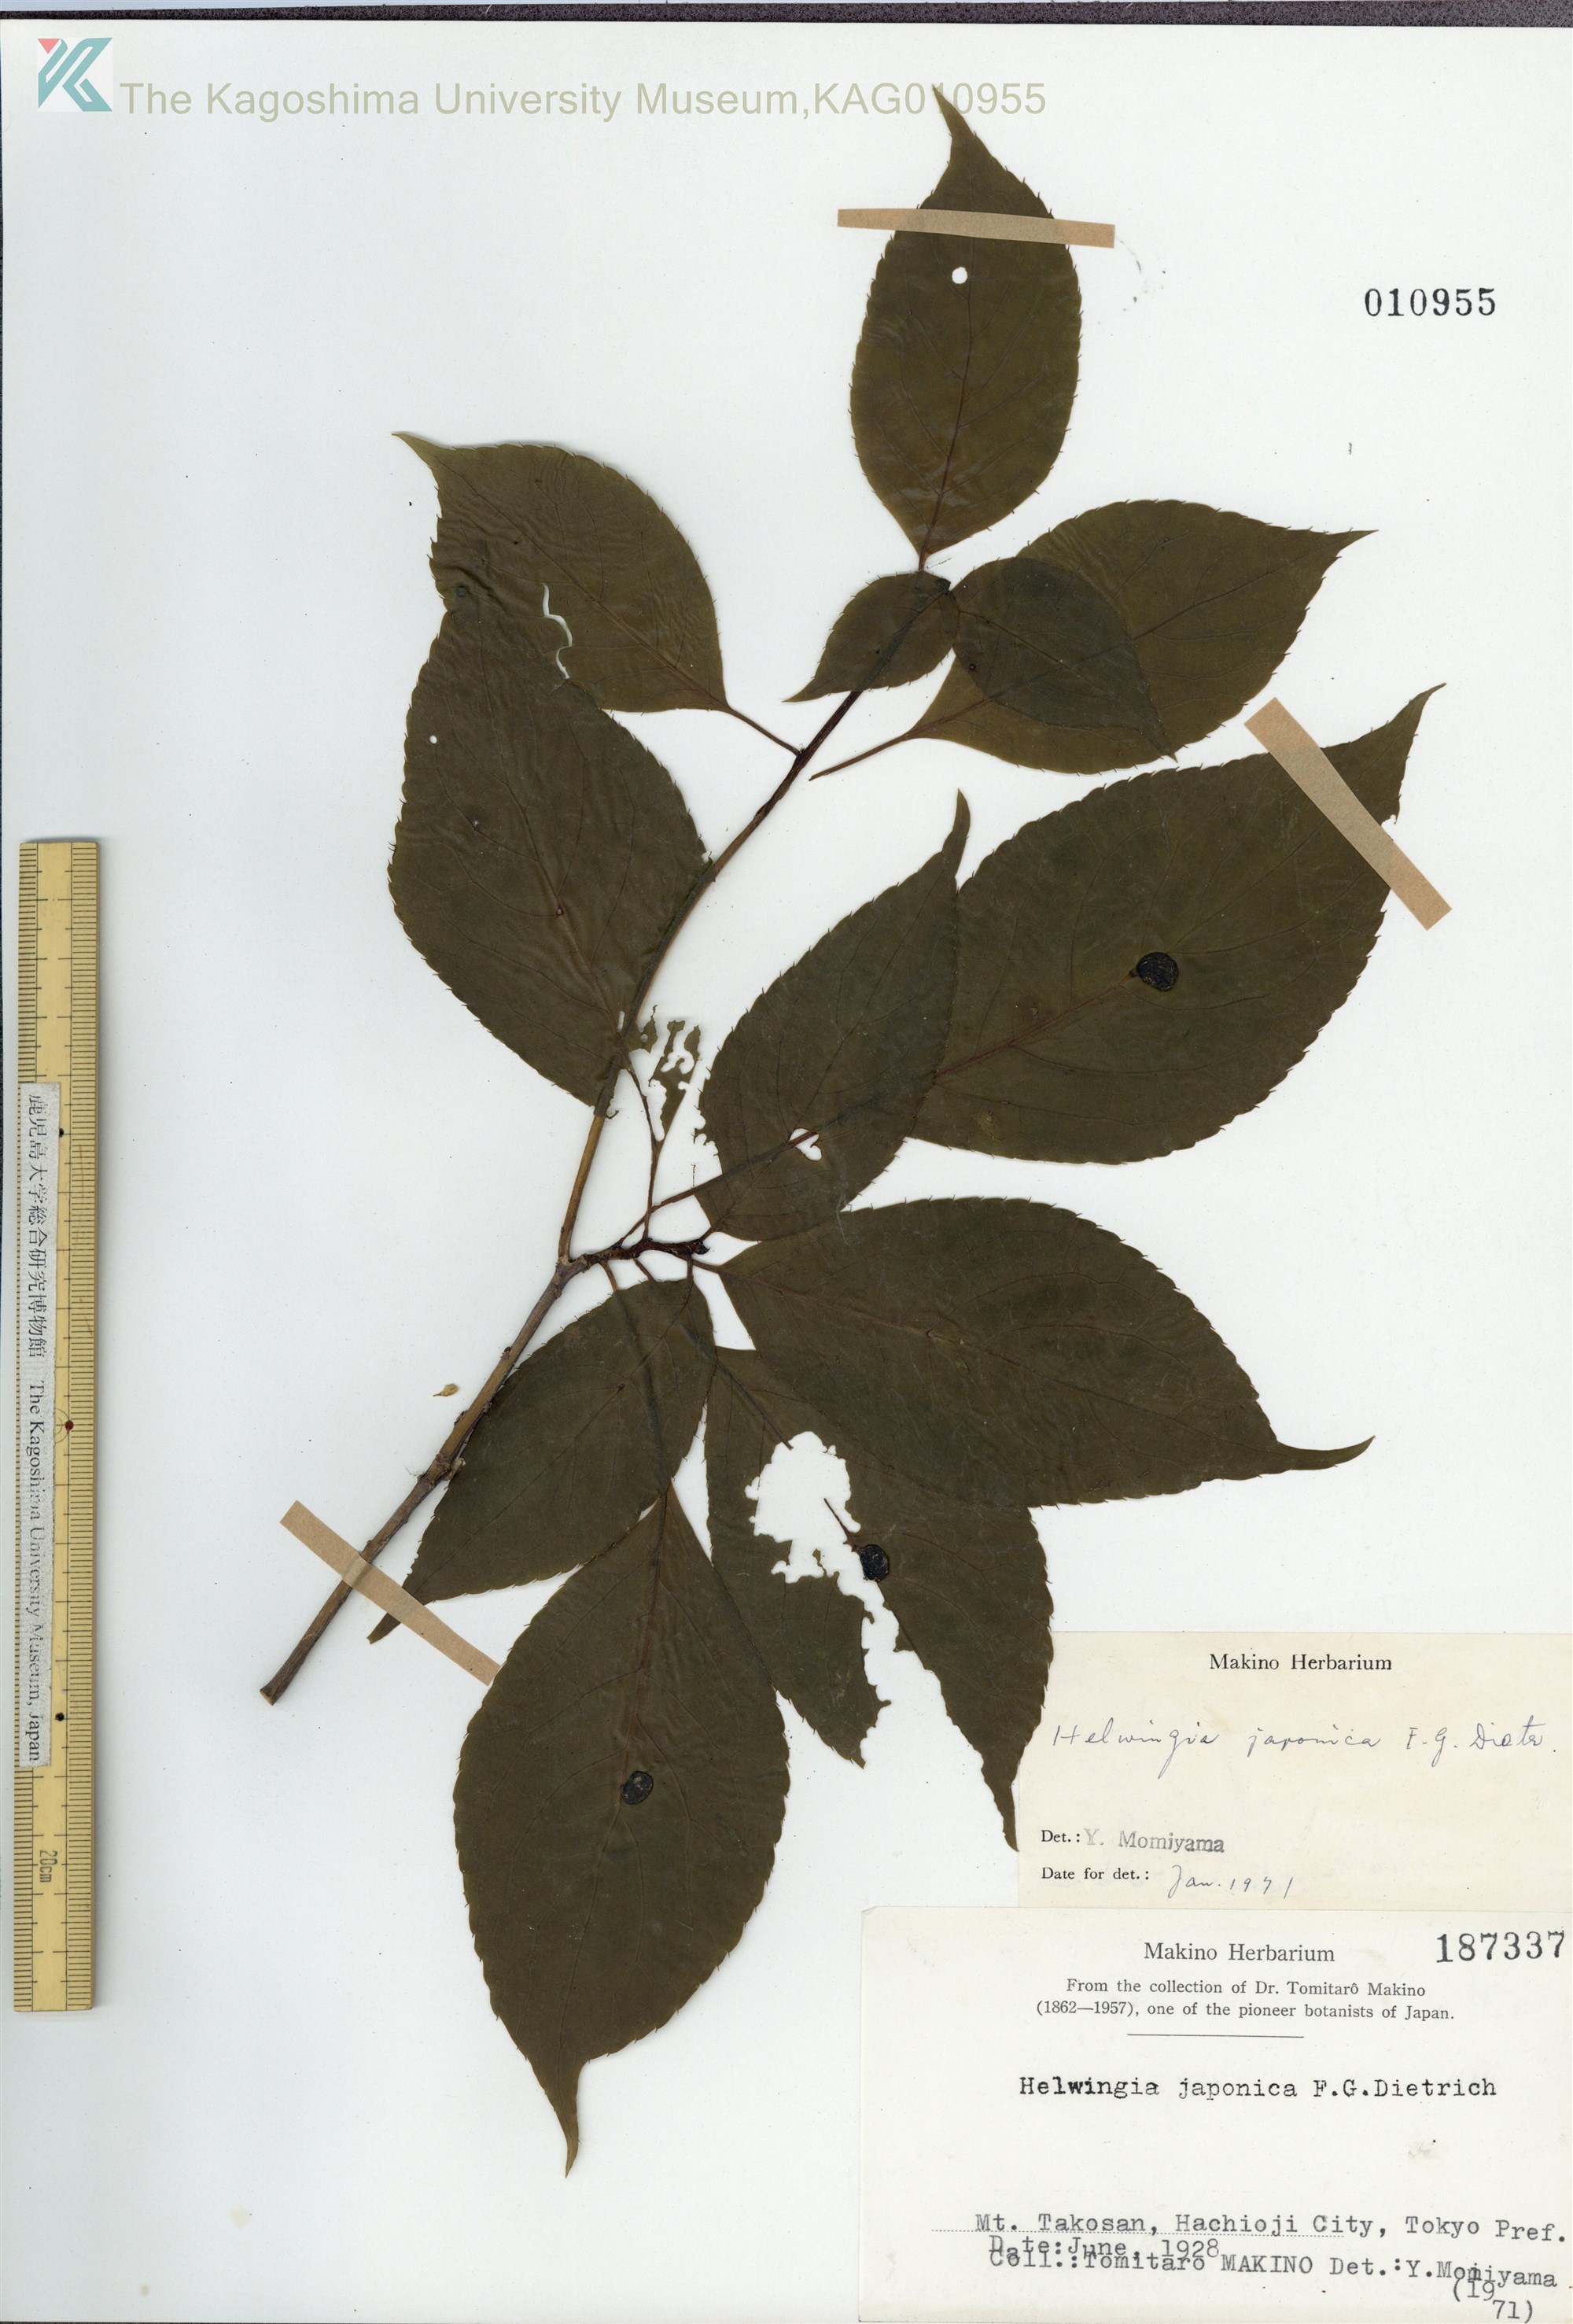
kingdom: Plantae
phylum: Tracheophyta
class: Magnoliopsida
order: Aquifoliales
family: Helwingiaceae
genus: Helwingia
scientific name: Helwingia japonica
